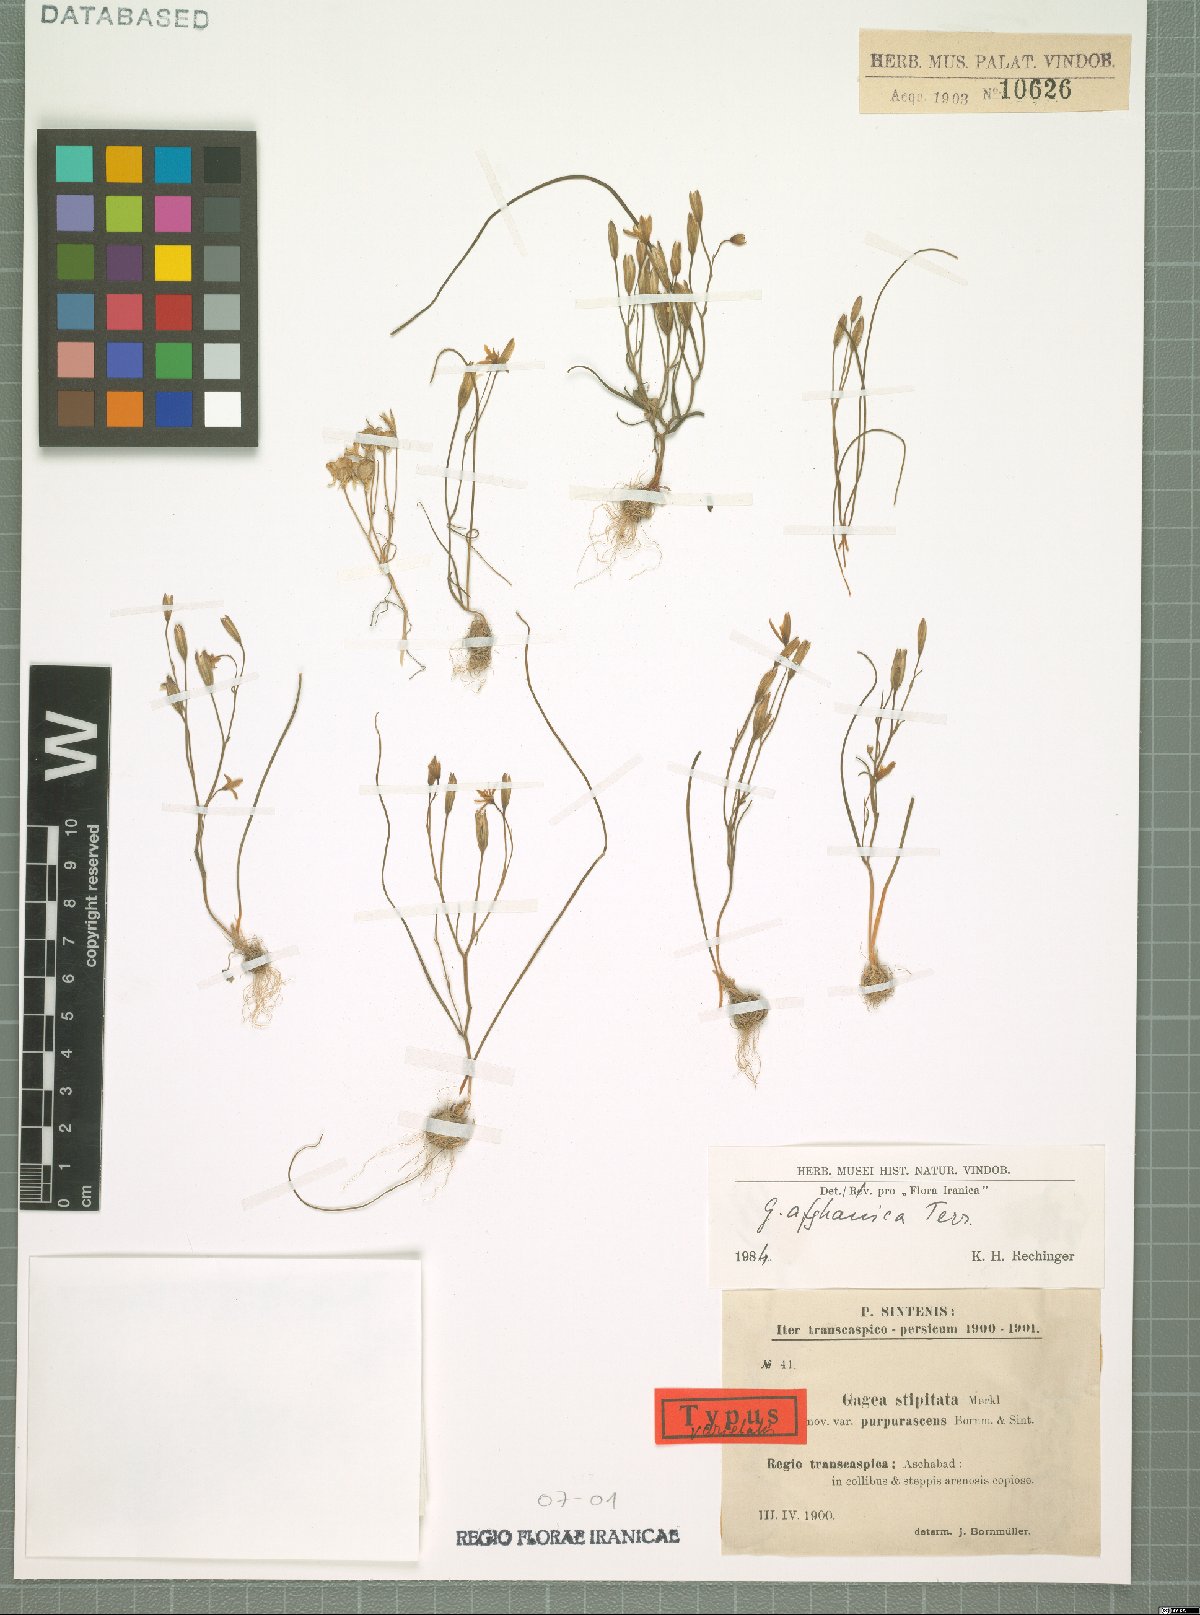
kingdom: Plantae
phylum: Tracheophyta
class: Liliopsida
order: Liliales
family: Liliaceae
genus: Gagea
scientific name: Gagea afghanica
